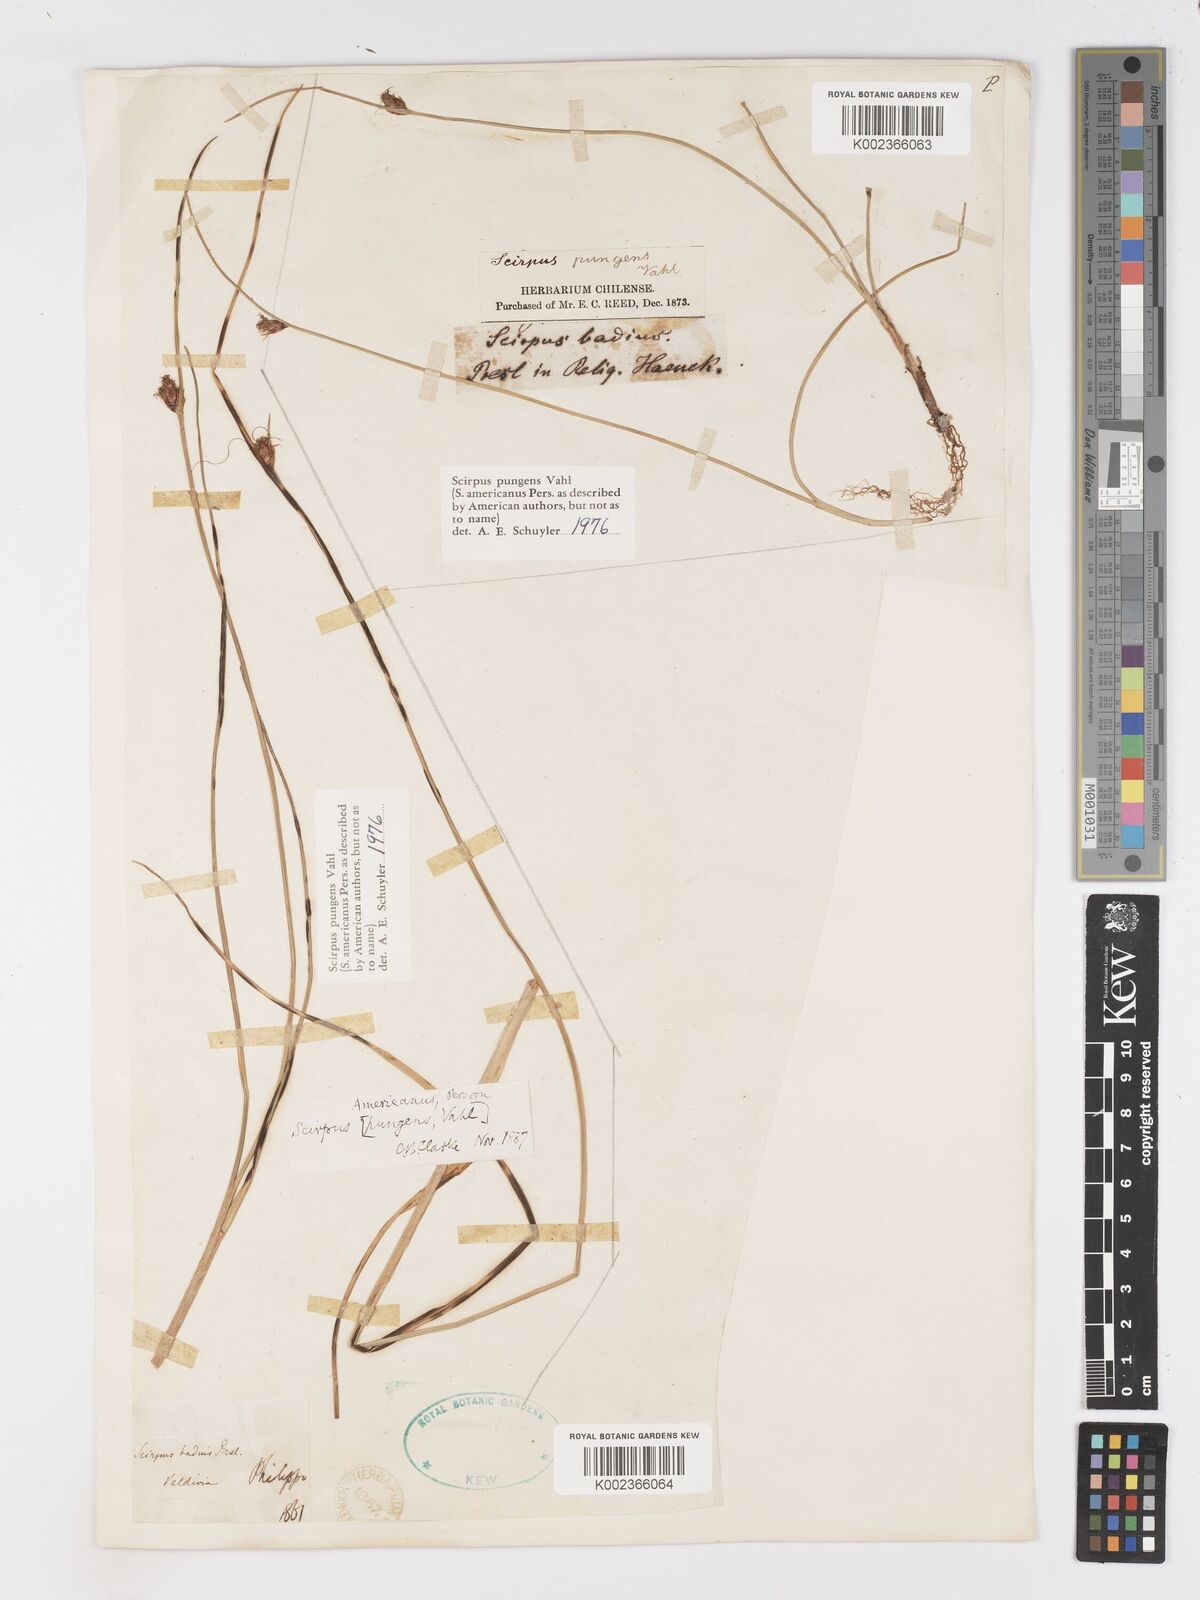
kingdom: Plantae
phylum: Tracheophyta
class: Liliopsida
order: Poales
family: Cyperaceae
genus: Schoenoplectus
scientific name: Schoenoplectus pungens
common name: Sharp club-rush
